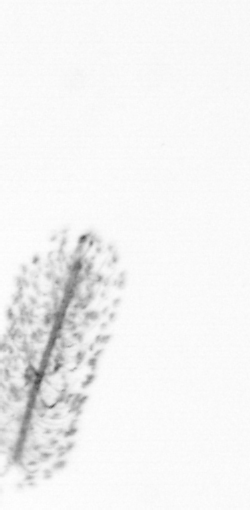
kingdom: Chromista
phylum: Ochrophyta
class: Bacillariophyceae
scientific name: Bacillariophyceae
